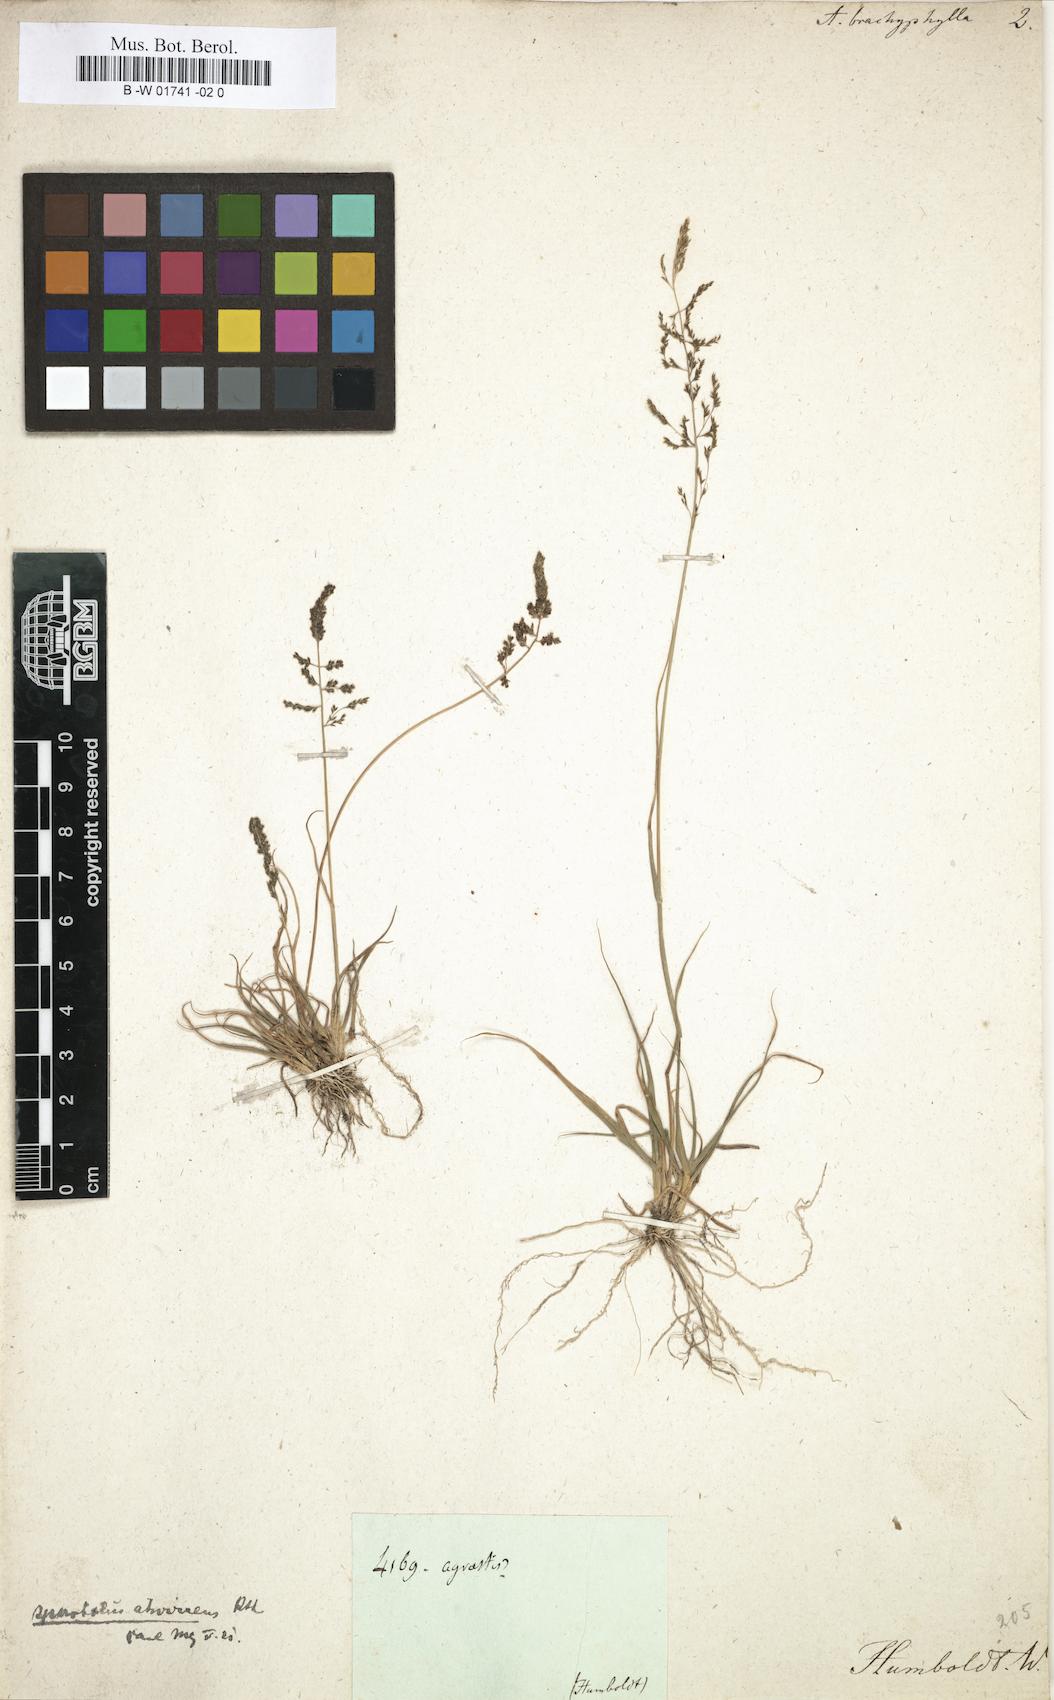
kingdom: Plantae
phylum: Tracheophyta
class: Liliopsida
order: Poales
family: Poaceae
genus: Muhlenbergia
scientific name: Muhlenbergia ciliata
